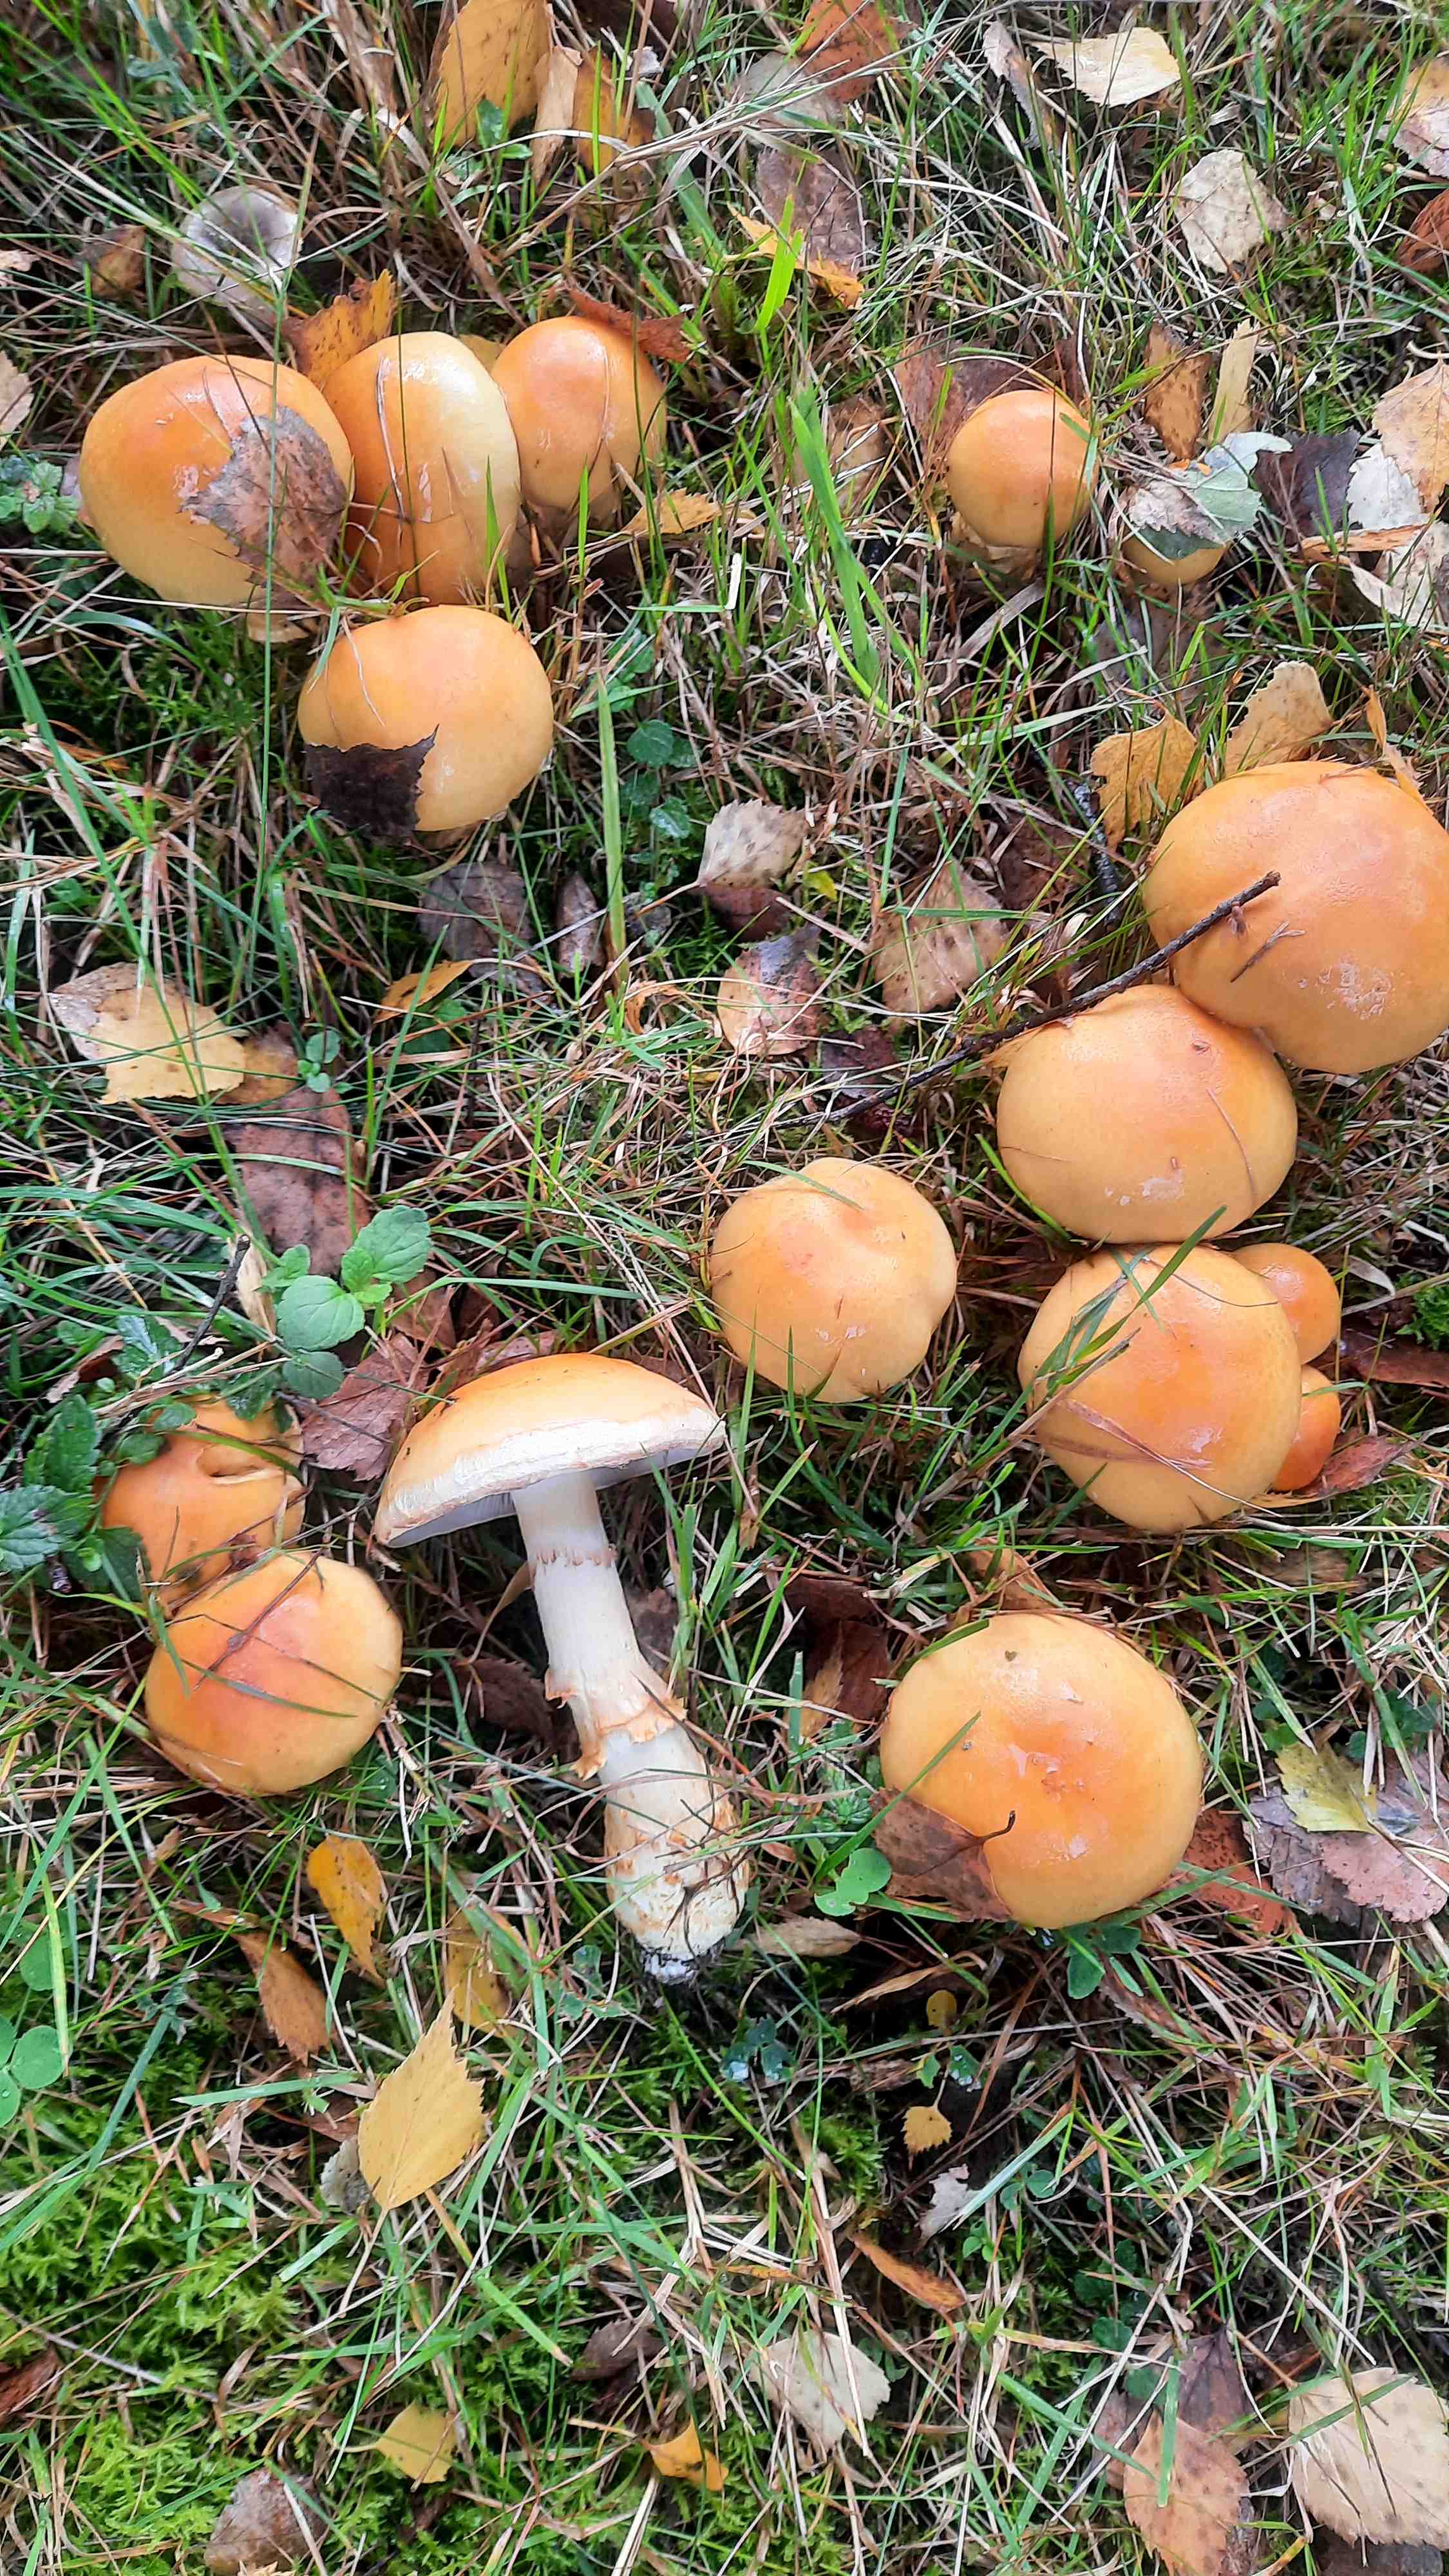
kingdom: Fungi
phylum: Basidiomycota
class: Agaricomycetes
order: Agaricales
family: Cortinariaceae
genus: Phlegmacium
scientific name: Phlegmacium triumphans
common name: gulbæltet slørhat
